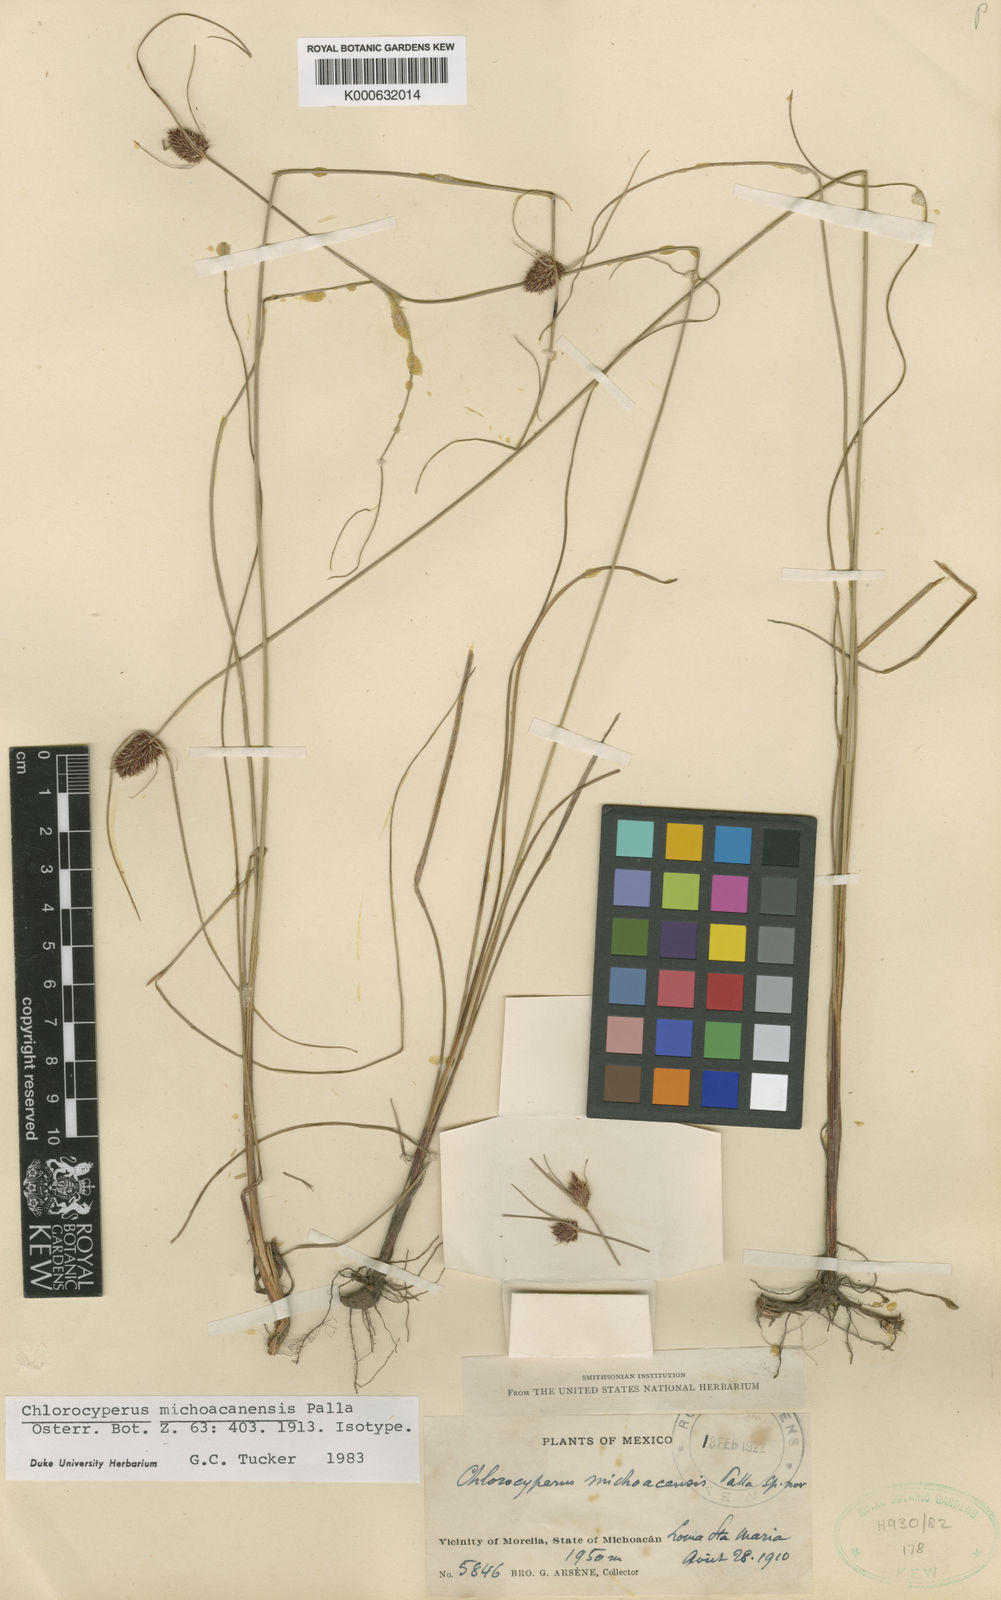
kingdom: Plantae
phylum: Tracheophyta
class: Liliopsida
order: Poales
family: Cyperaceae
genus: Cyperus
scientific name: Cyperus sanguineoater
